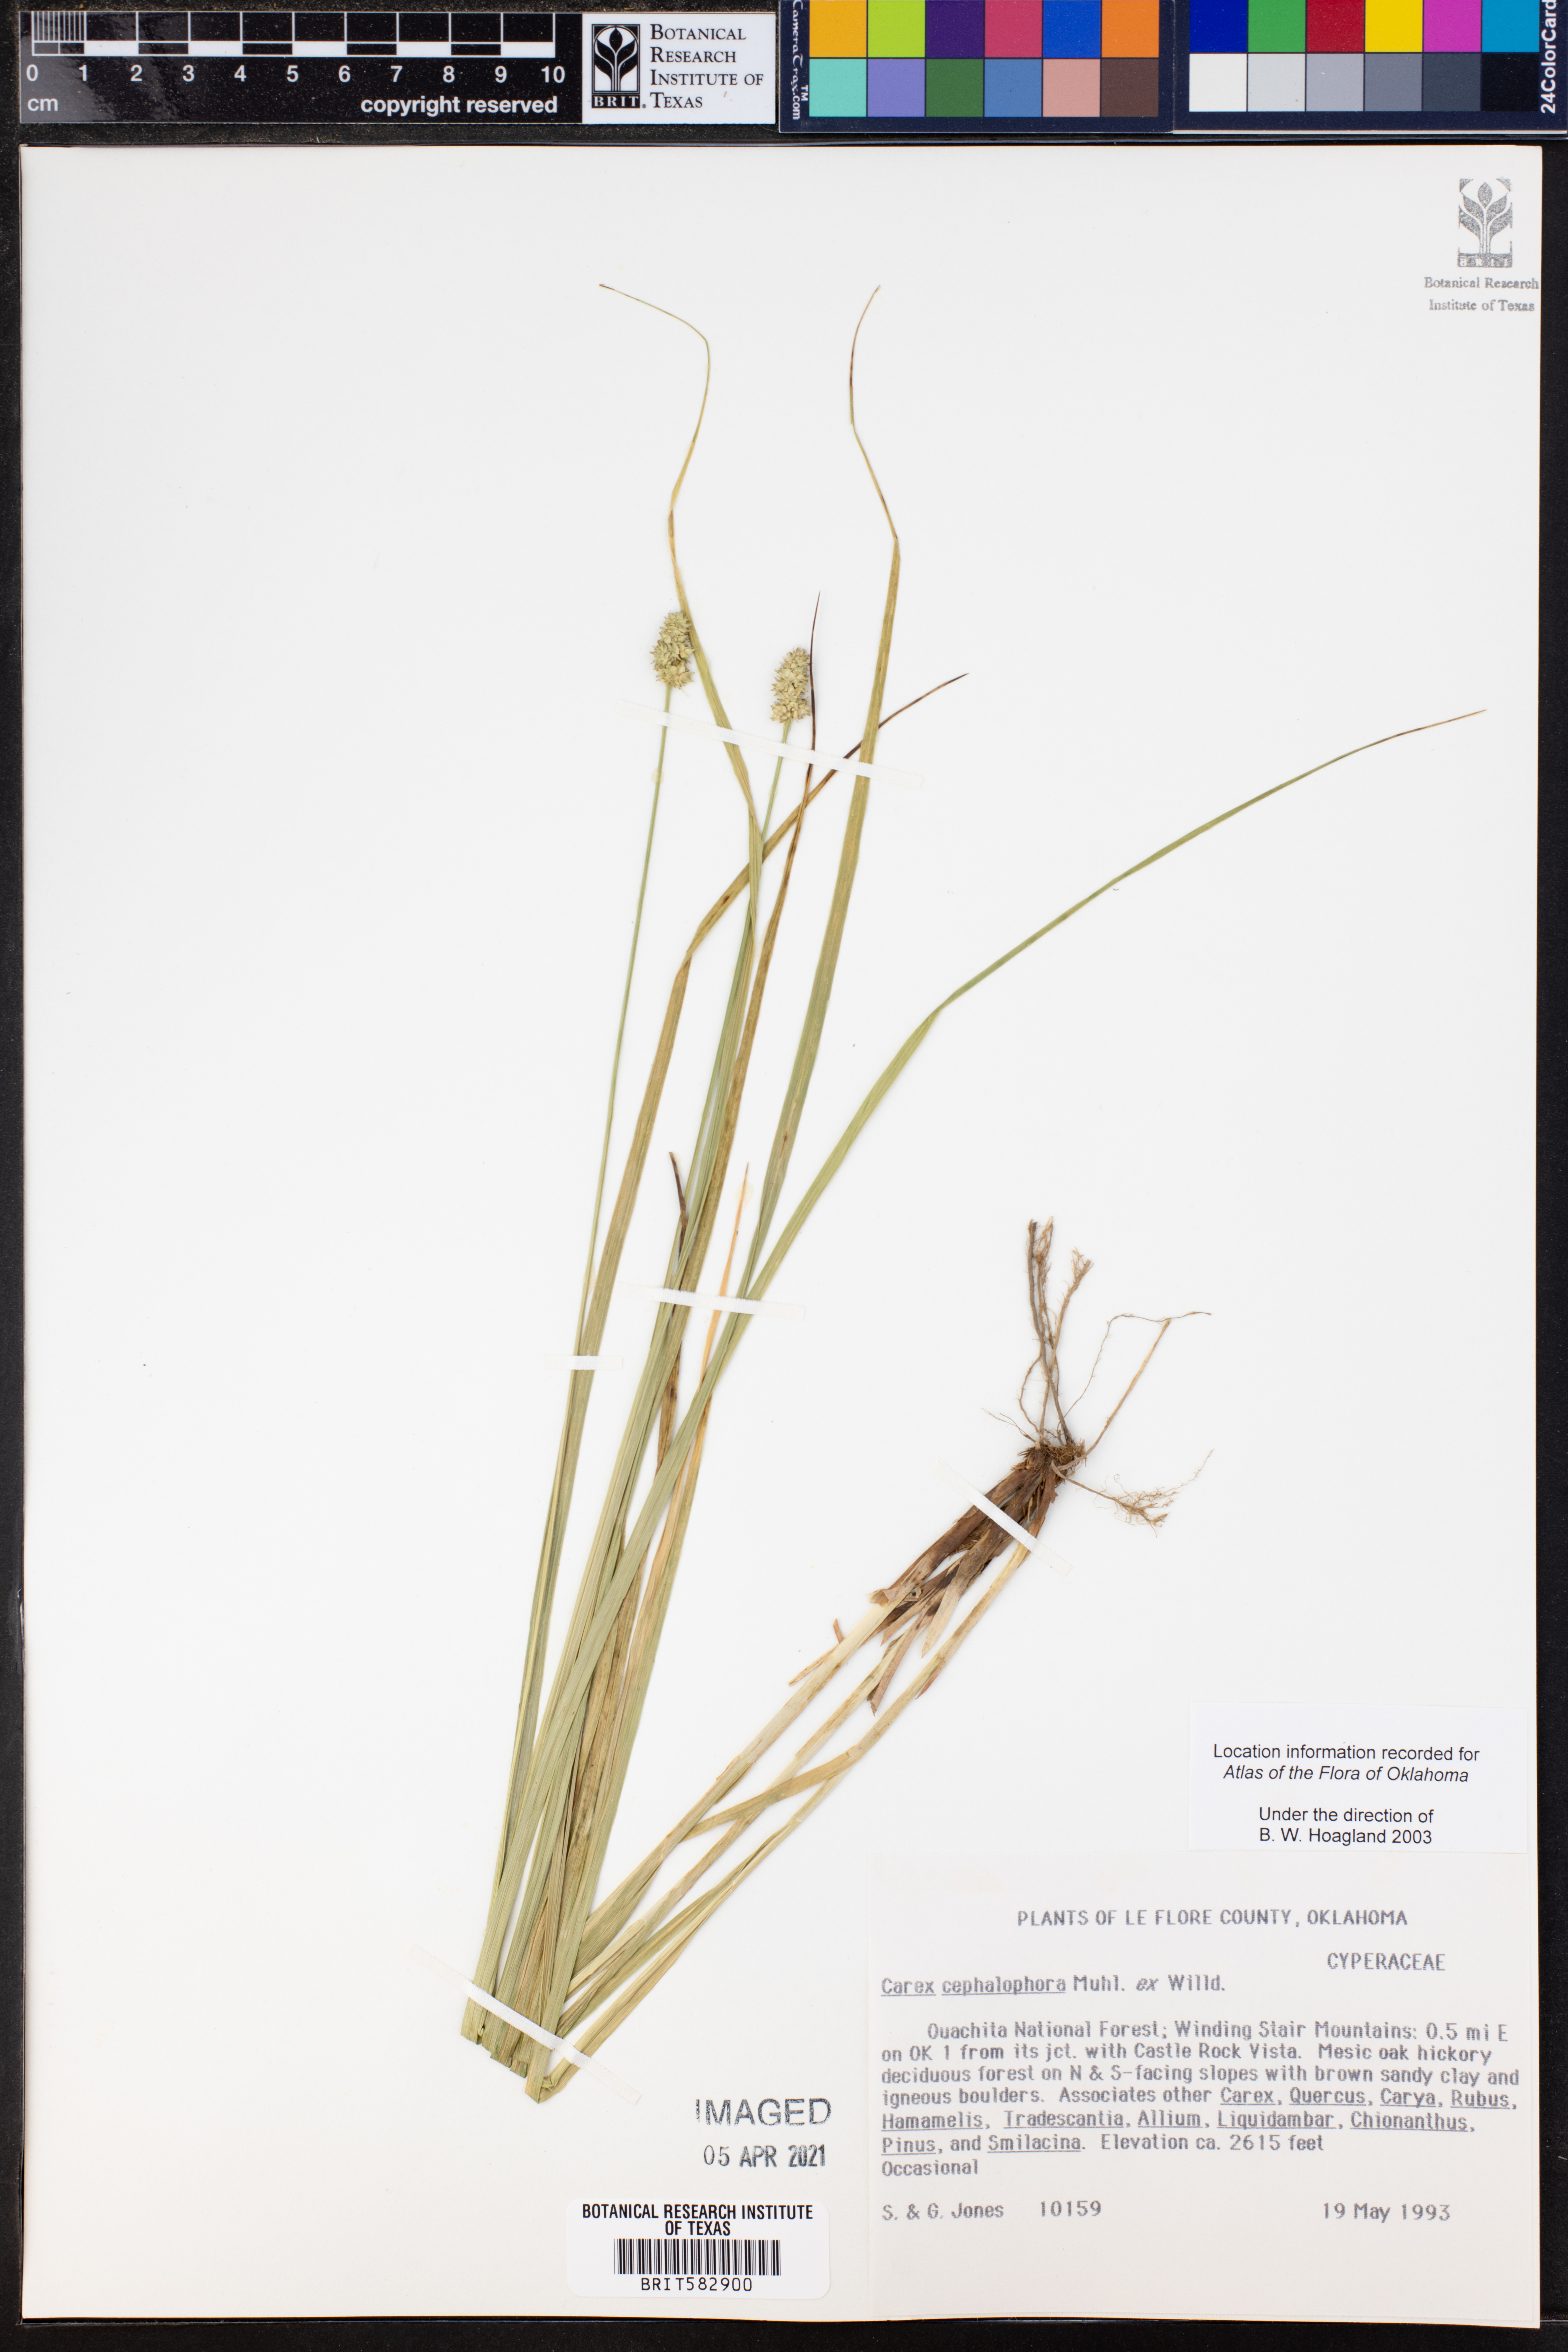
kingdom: Plantae
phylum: Tracheophyta
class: Liliopsida
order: Poales
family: Cyperaceae
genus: Carex
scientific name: Carex cephalophora
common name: Oval-headed sedge
